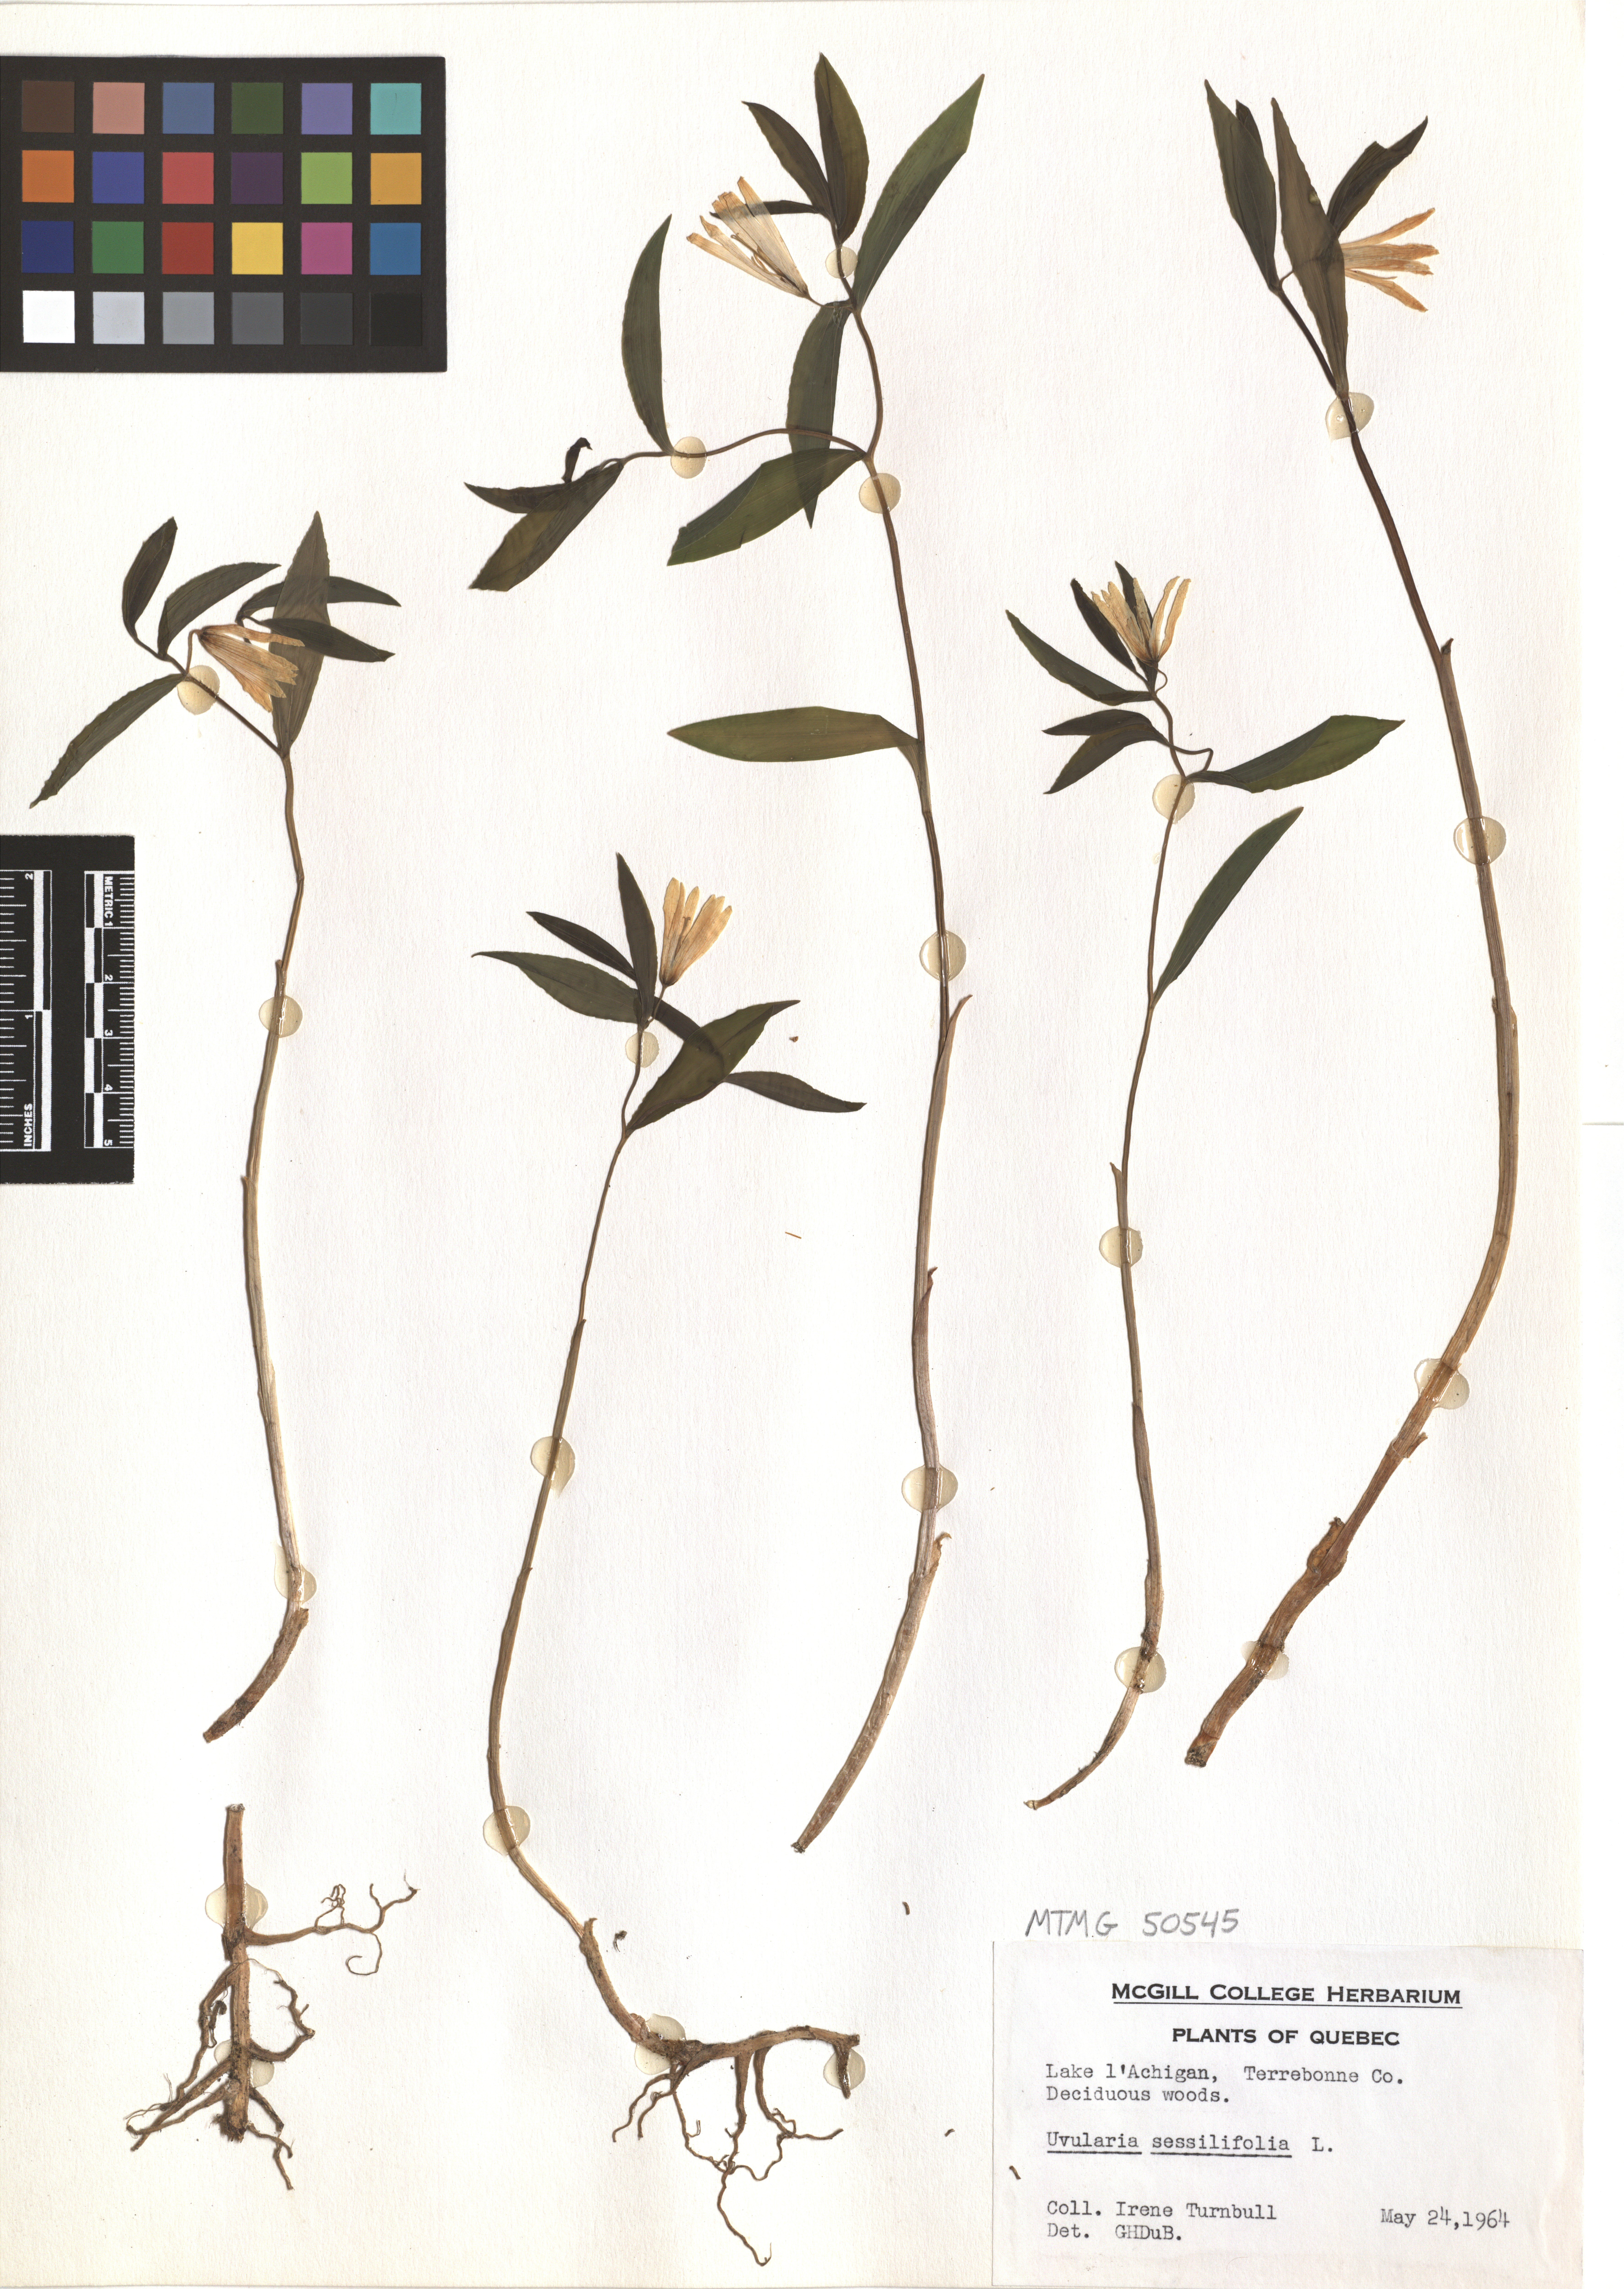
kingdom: Plantae
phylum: Tracheophyta
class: Liliopsida
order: Liliales
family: Colchicaceae
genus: Uvularia
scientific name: Uvularia sessilifolia
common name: Straw-lily
